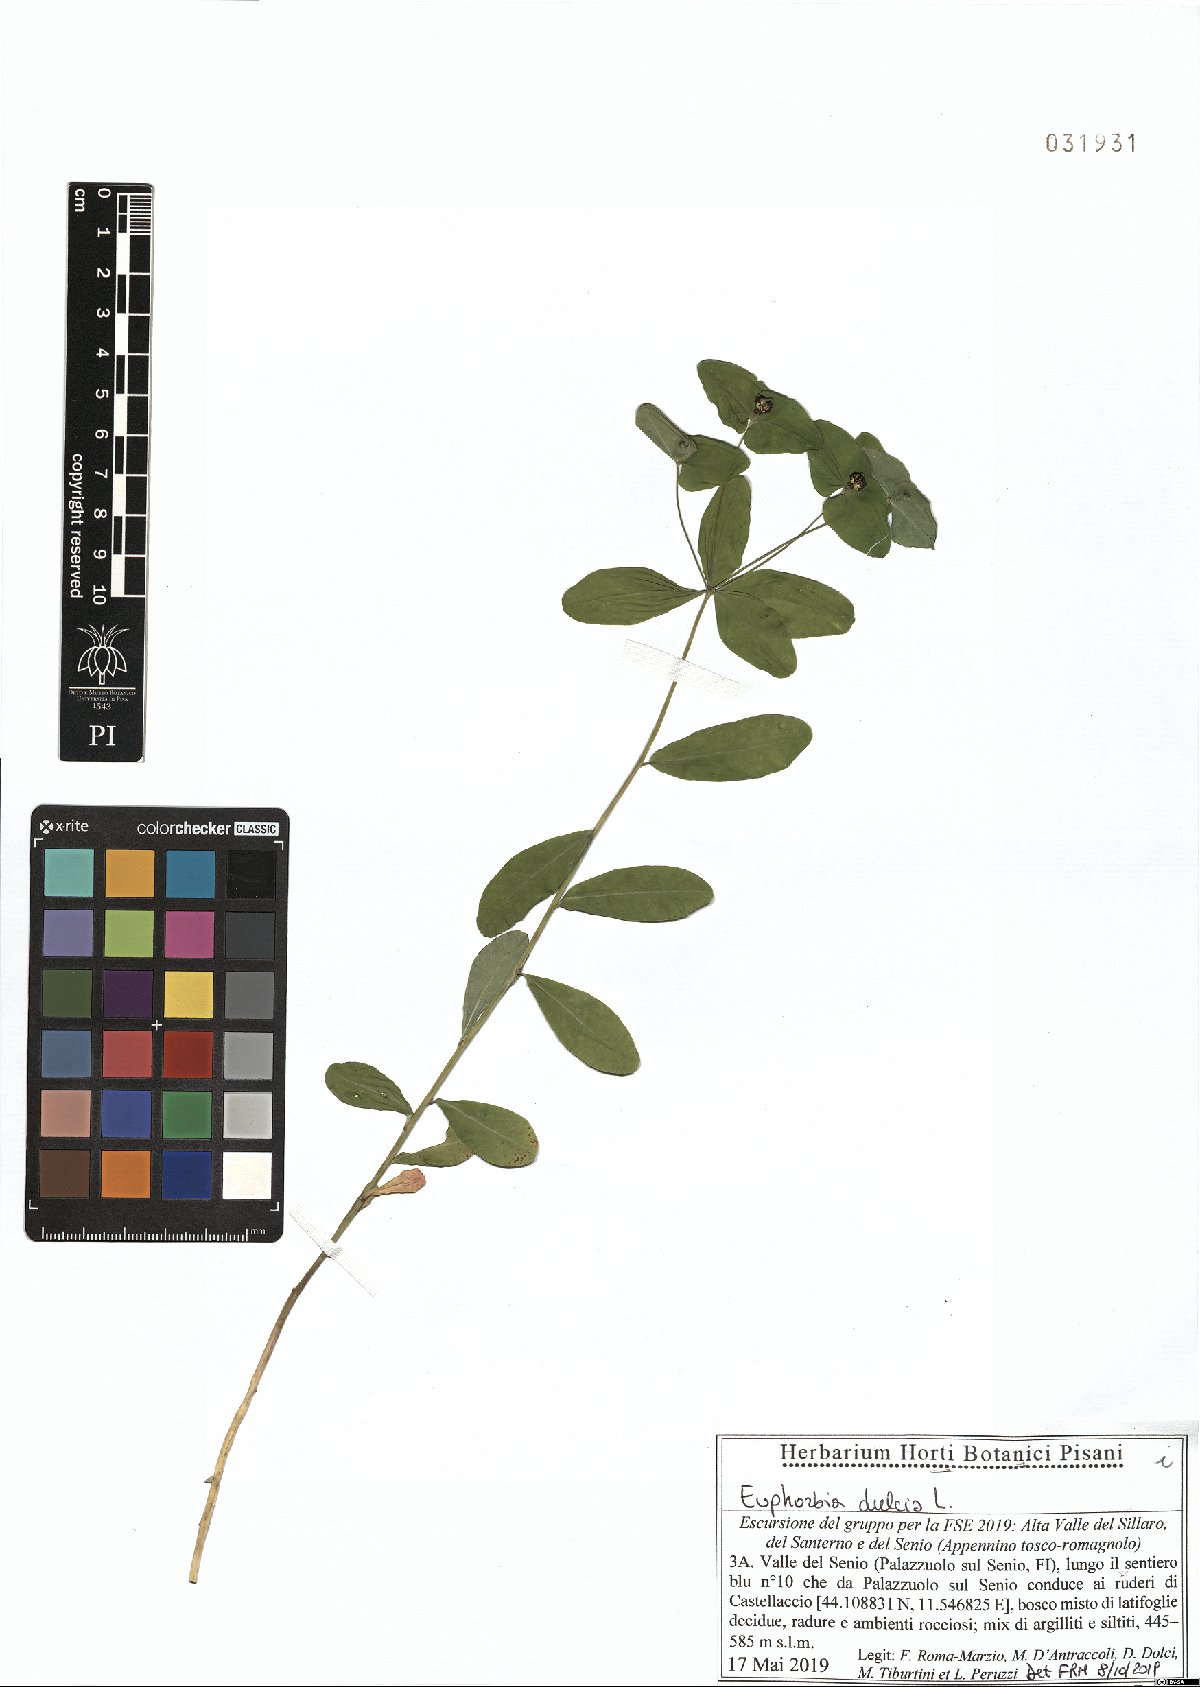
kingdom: Plantae
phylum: Tracheophyta
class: Magnoliopsida
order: Malpighiales
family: Euphorbiaceae
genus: Euphorbia
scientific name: Euphorbia dulcis
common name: Sweet spurge
